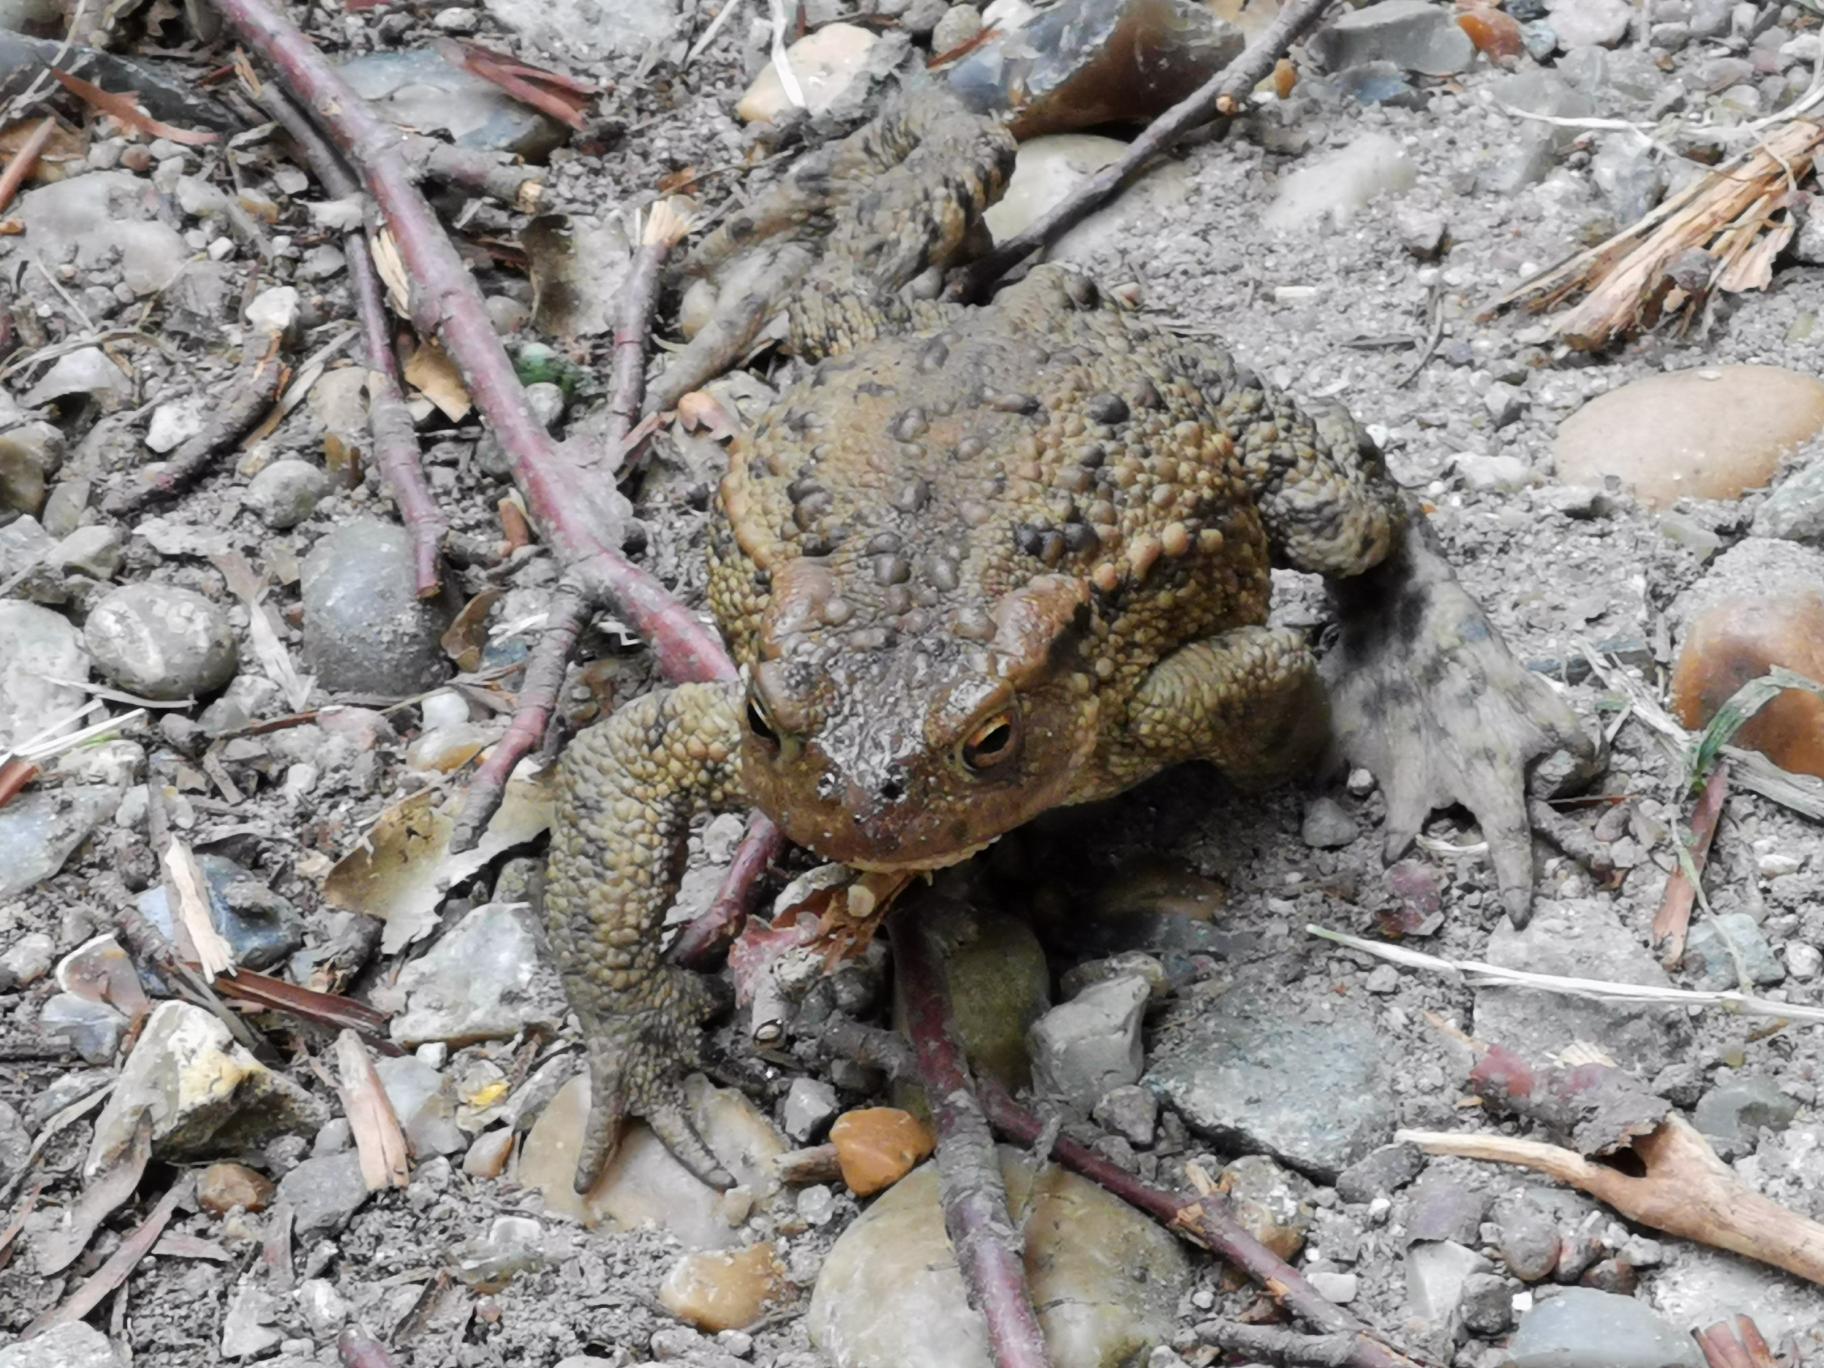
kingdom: Animalia
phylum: Chordata
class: Amphibia
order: Anura
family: Bufonidae
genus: Bufo
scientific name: Bufo bufo
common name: Skrubtudse
